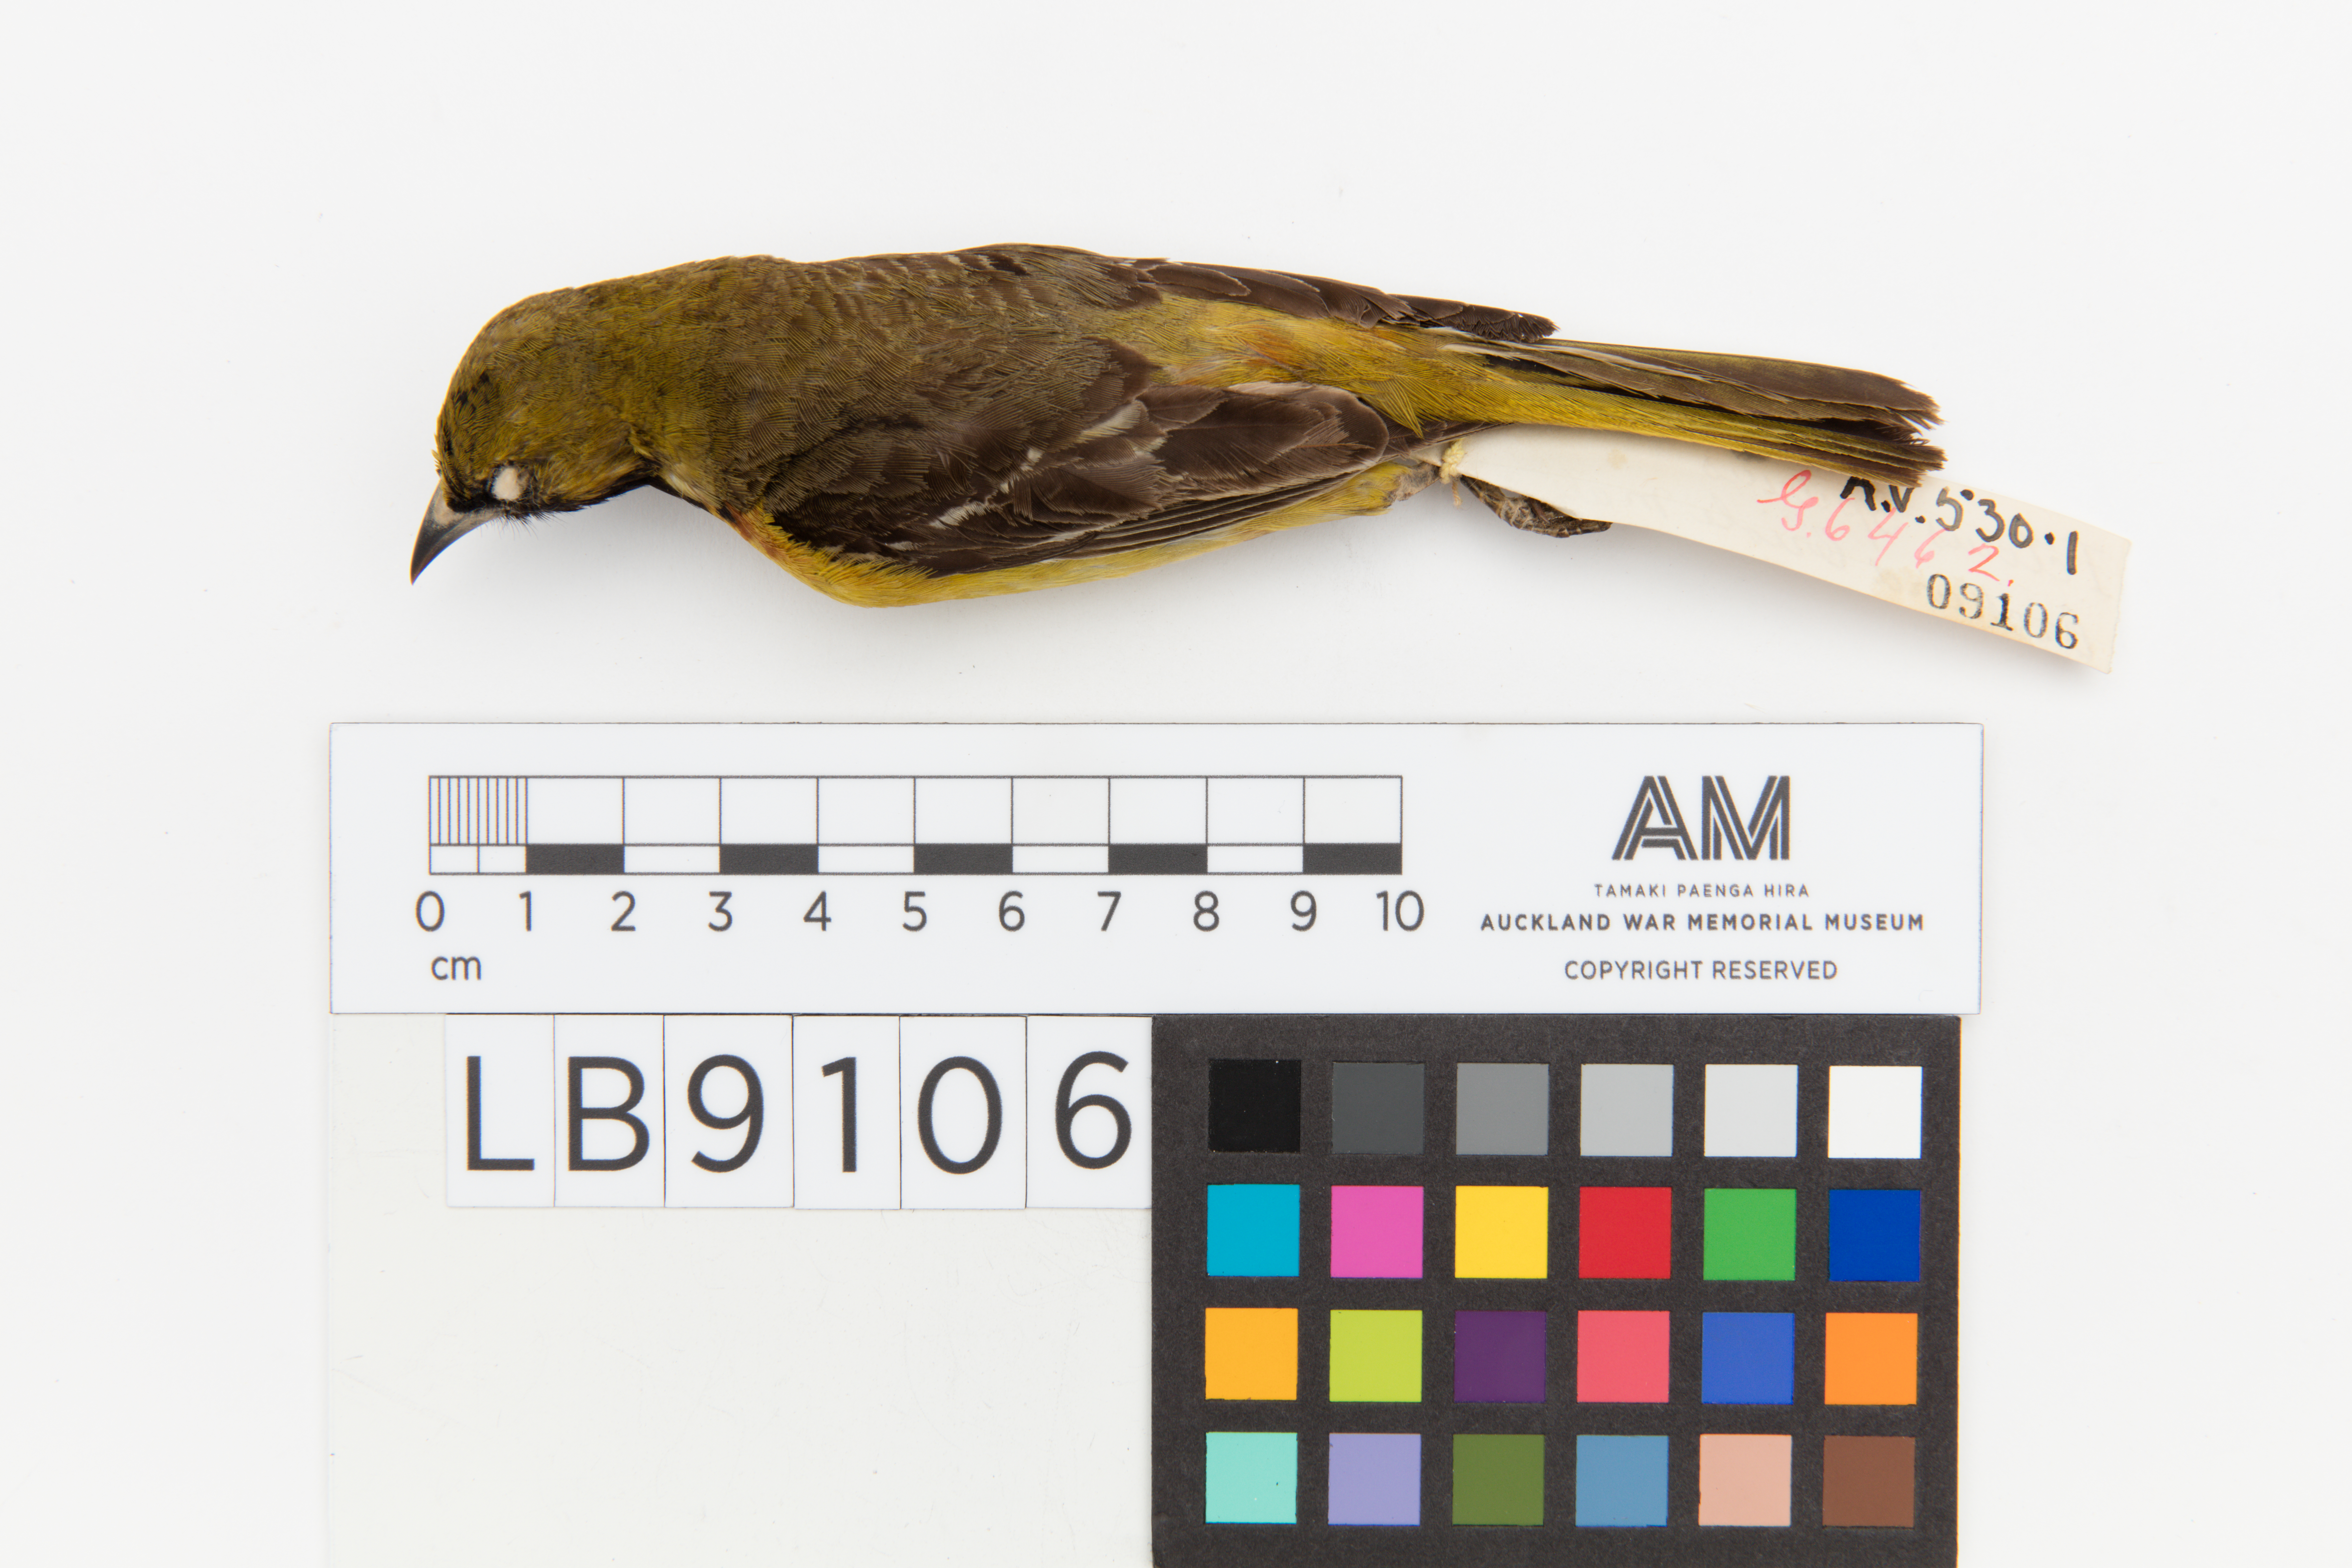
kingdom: Animalia
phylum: Chordata
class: Aves
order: Passeriformes
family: Icteridae
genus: Icterus
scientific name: Icterus spurius
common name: Orchard oriole
